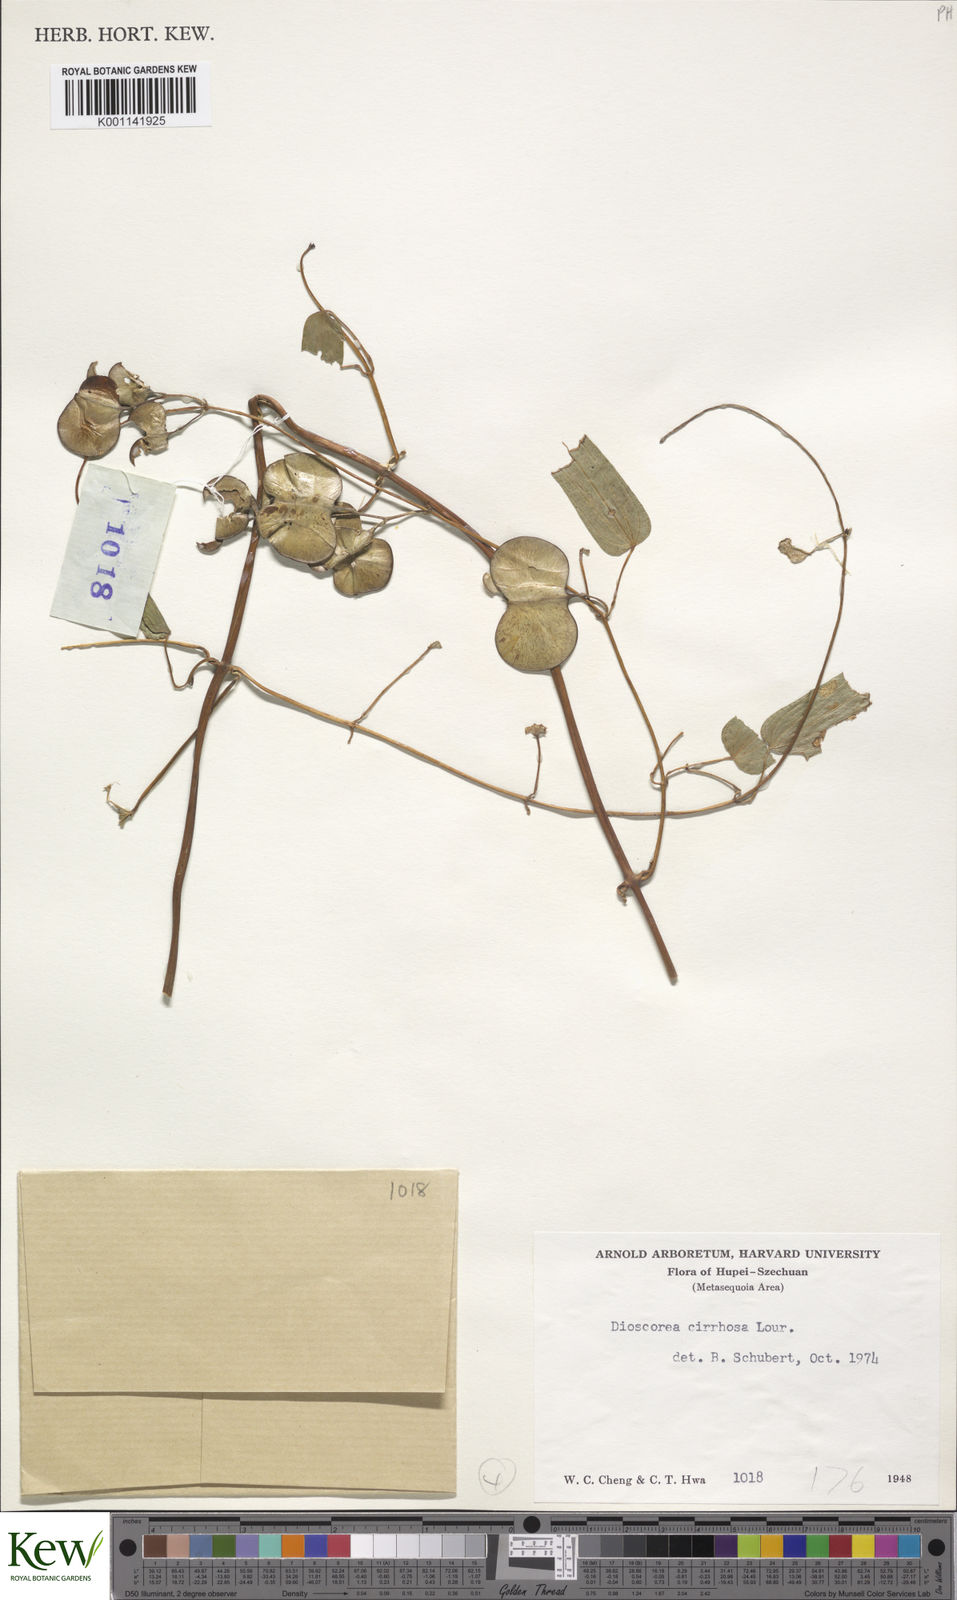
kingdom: Plantae
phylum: Tracheophyta
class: Liliopsida
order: Dioscoreales
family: Dioscoreaceae
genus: Dioscorea
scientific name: Dioscorea cirrhosa
